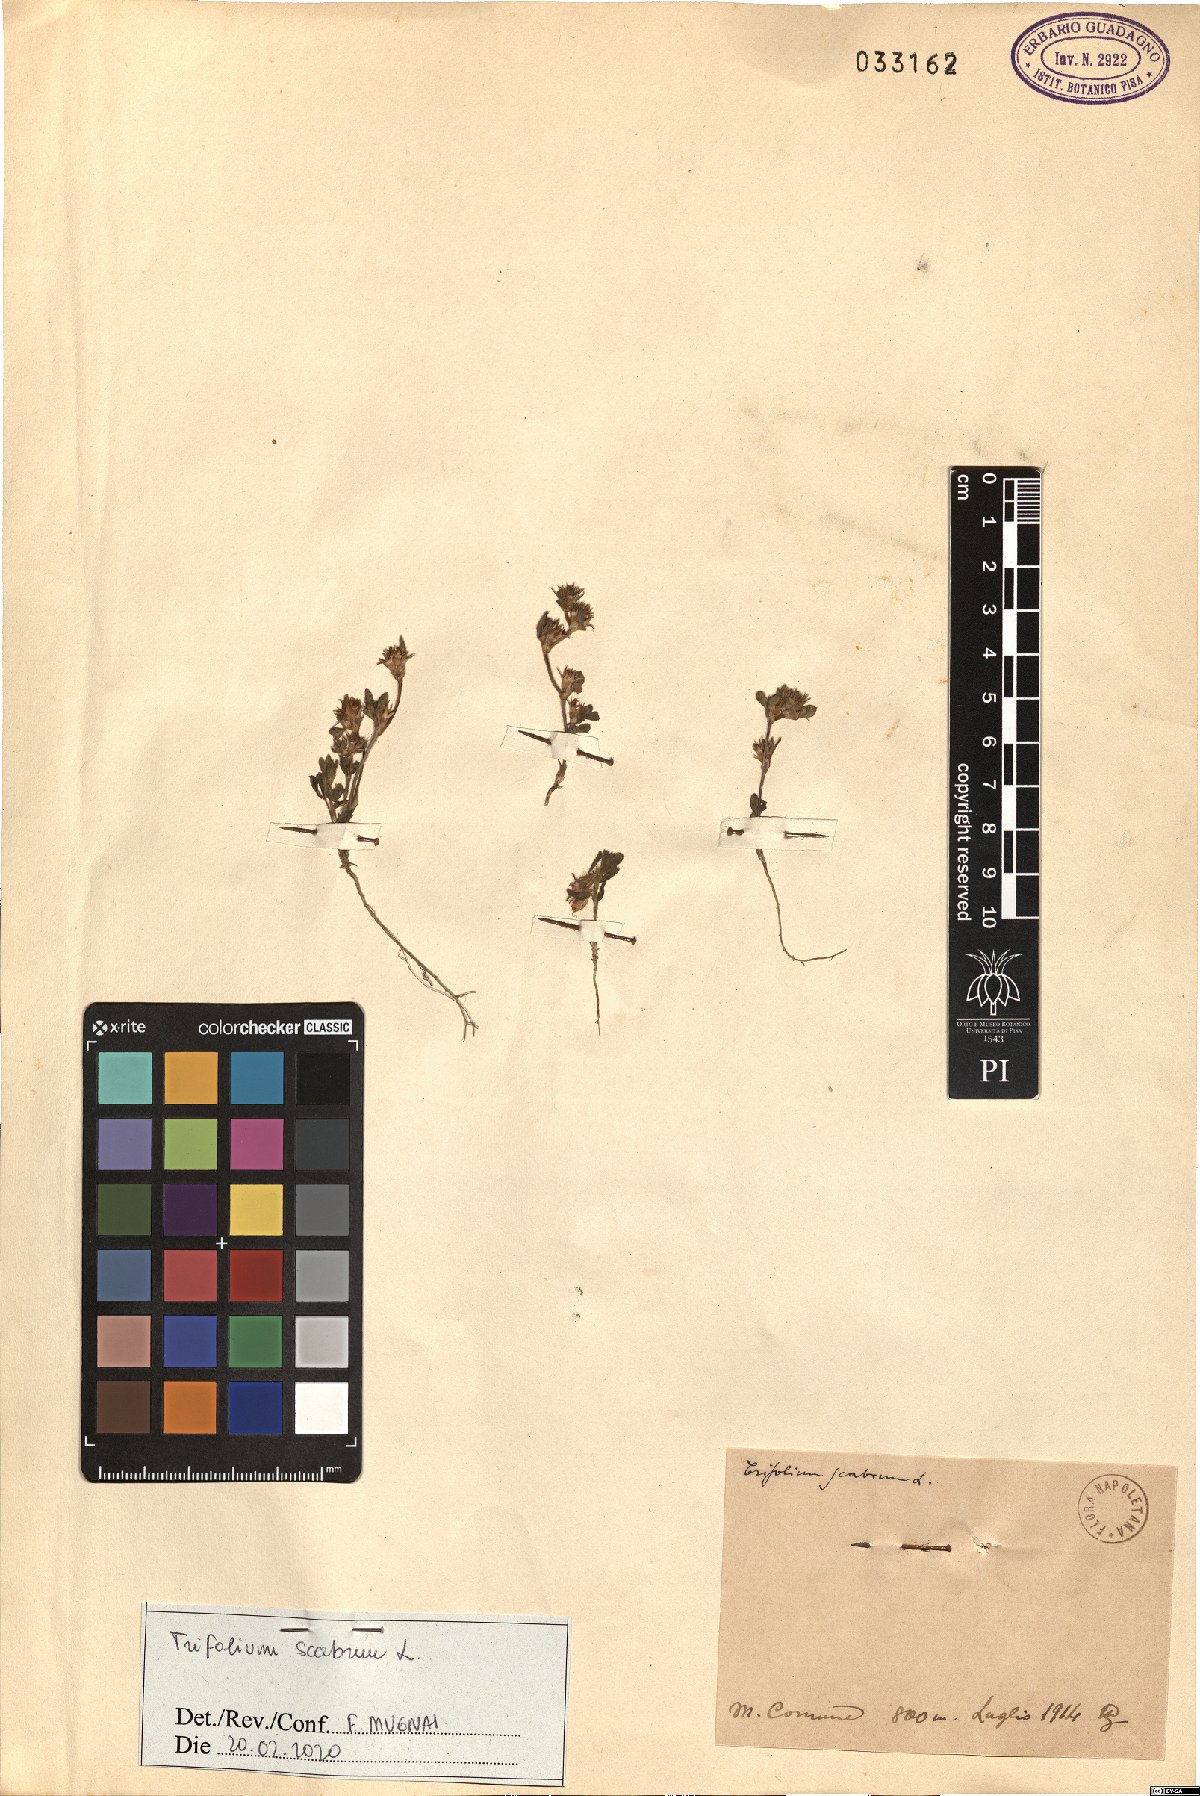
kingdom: Plantae
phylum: Tracheophyta
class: Magnoliopsida
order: Fabales
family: Fabaceae
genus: Trifolium
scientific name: Trifolium scabrum
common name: Rough clover
